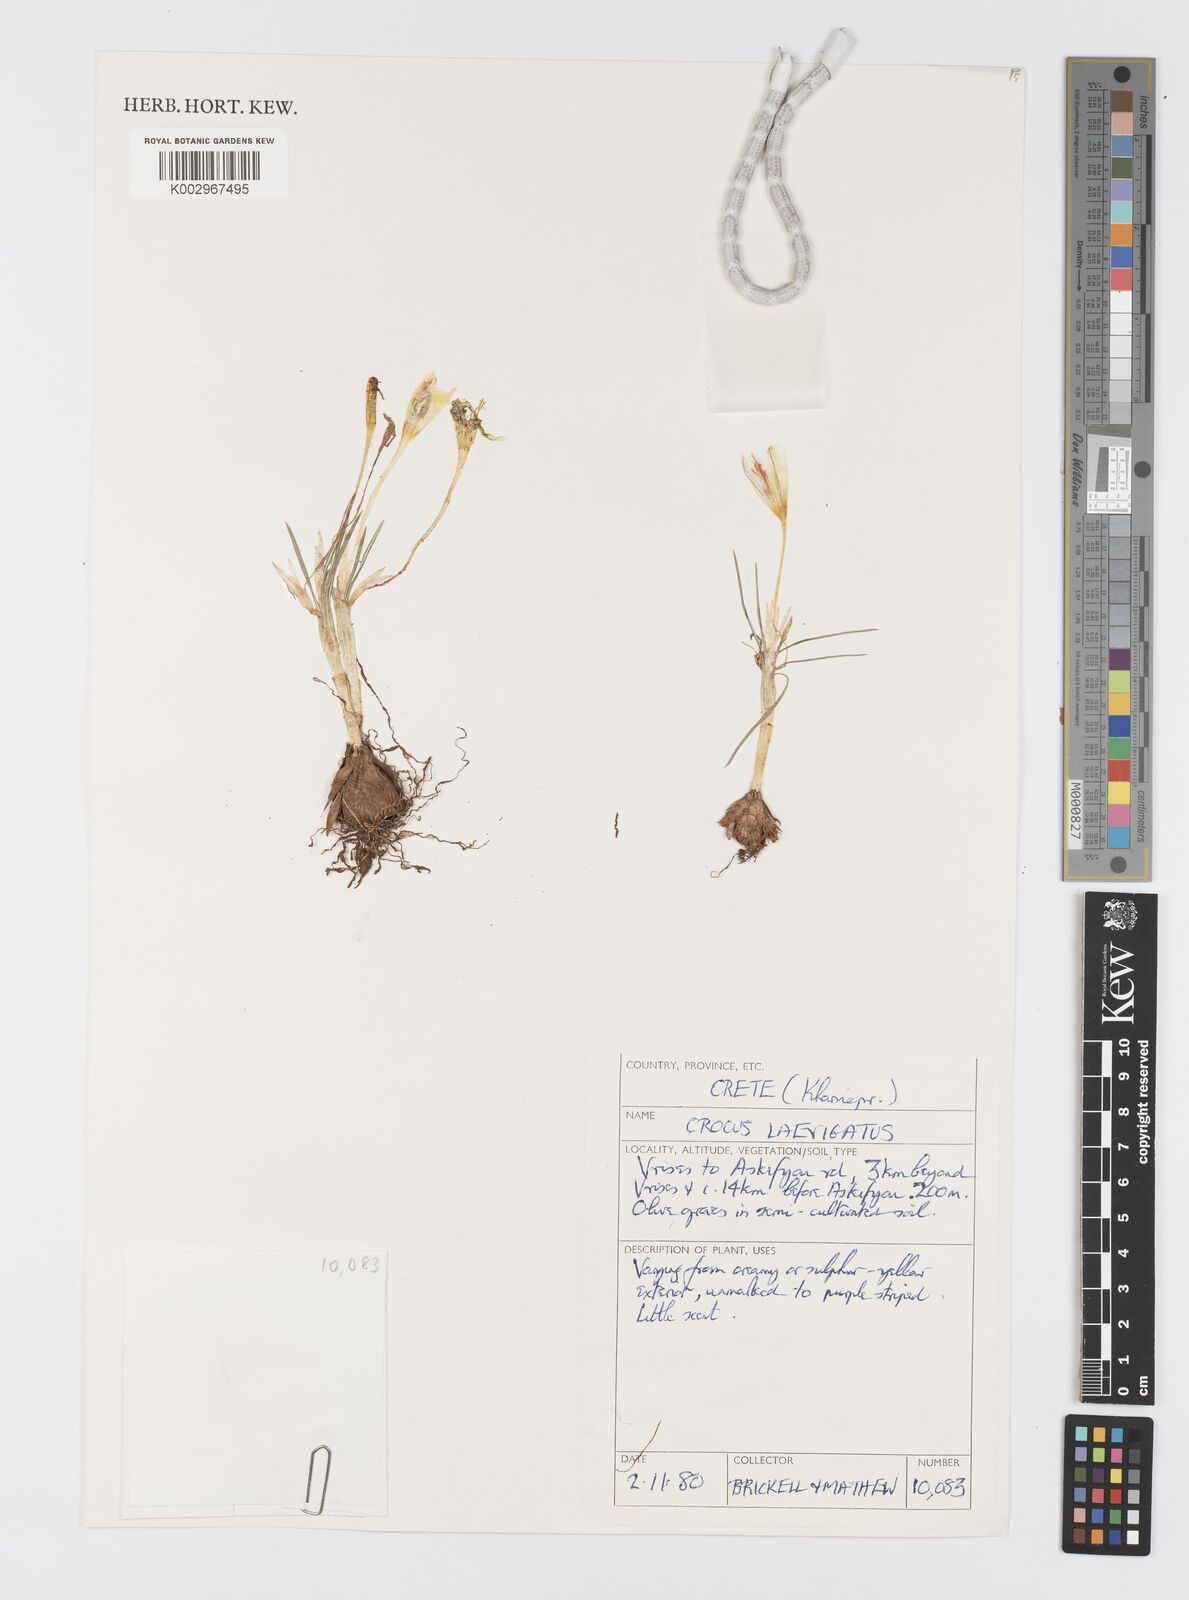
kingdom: Plantae
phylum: Tracheophyta
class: Liliopsida
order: Asparagales
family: Iridaceae
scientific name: Iridaceae
